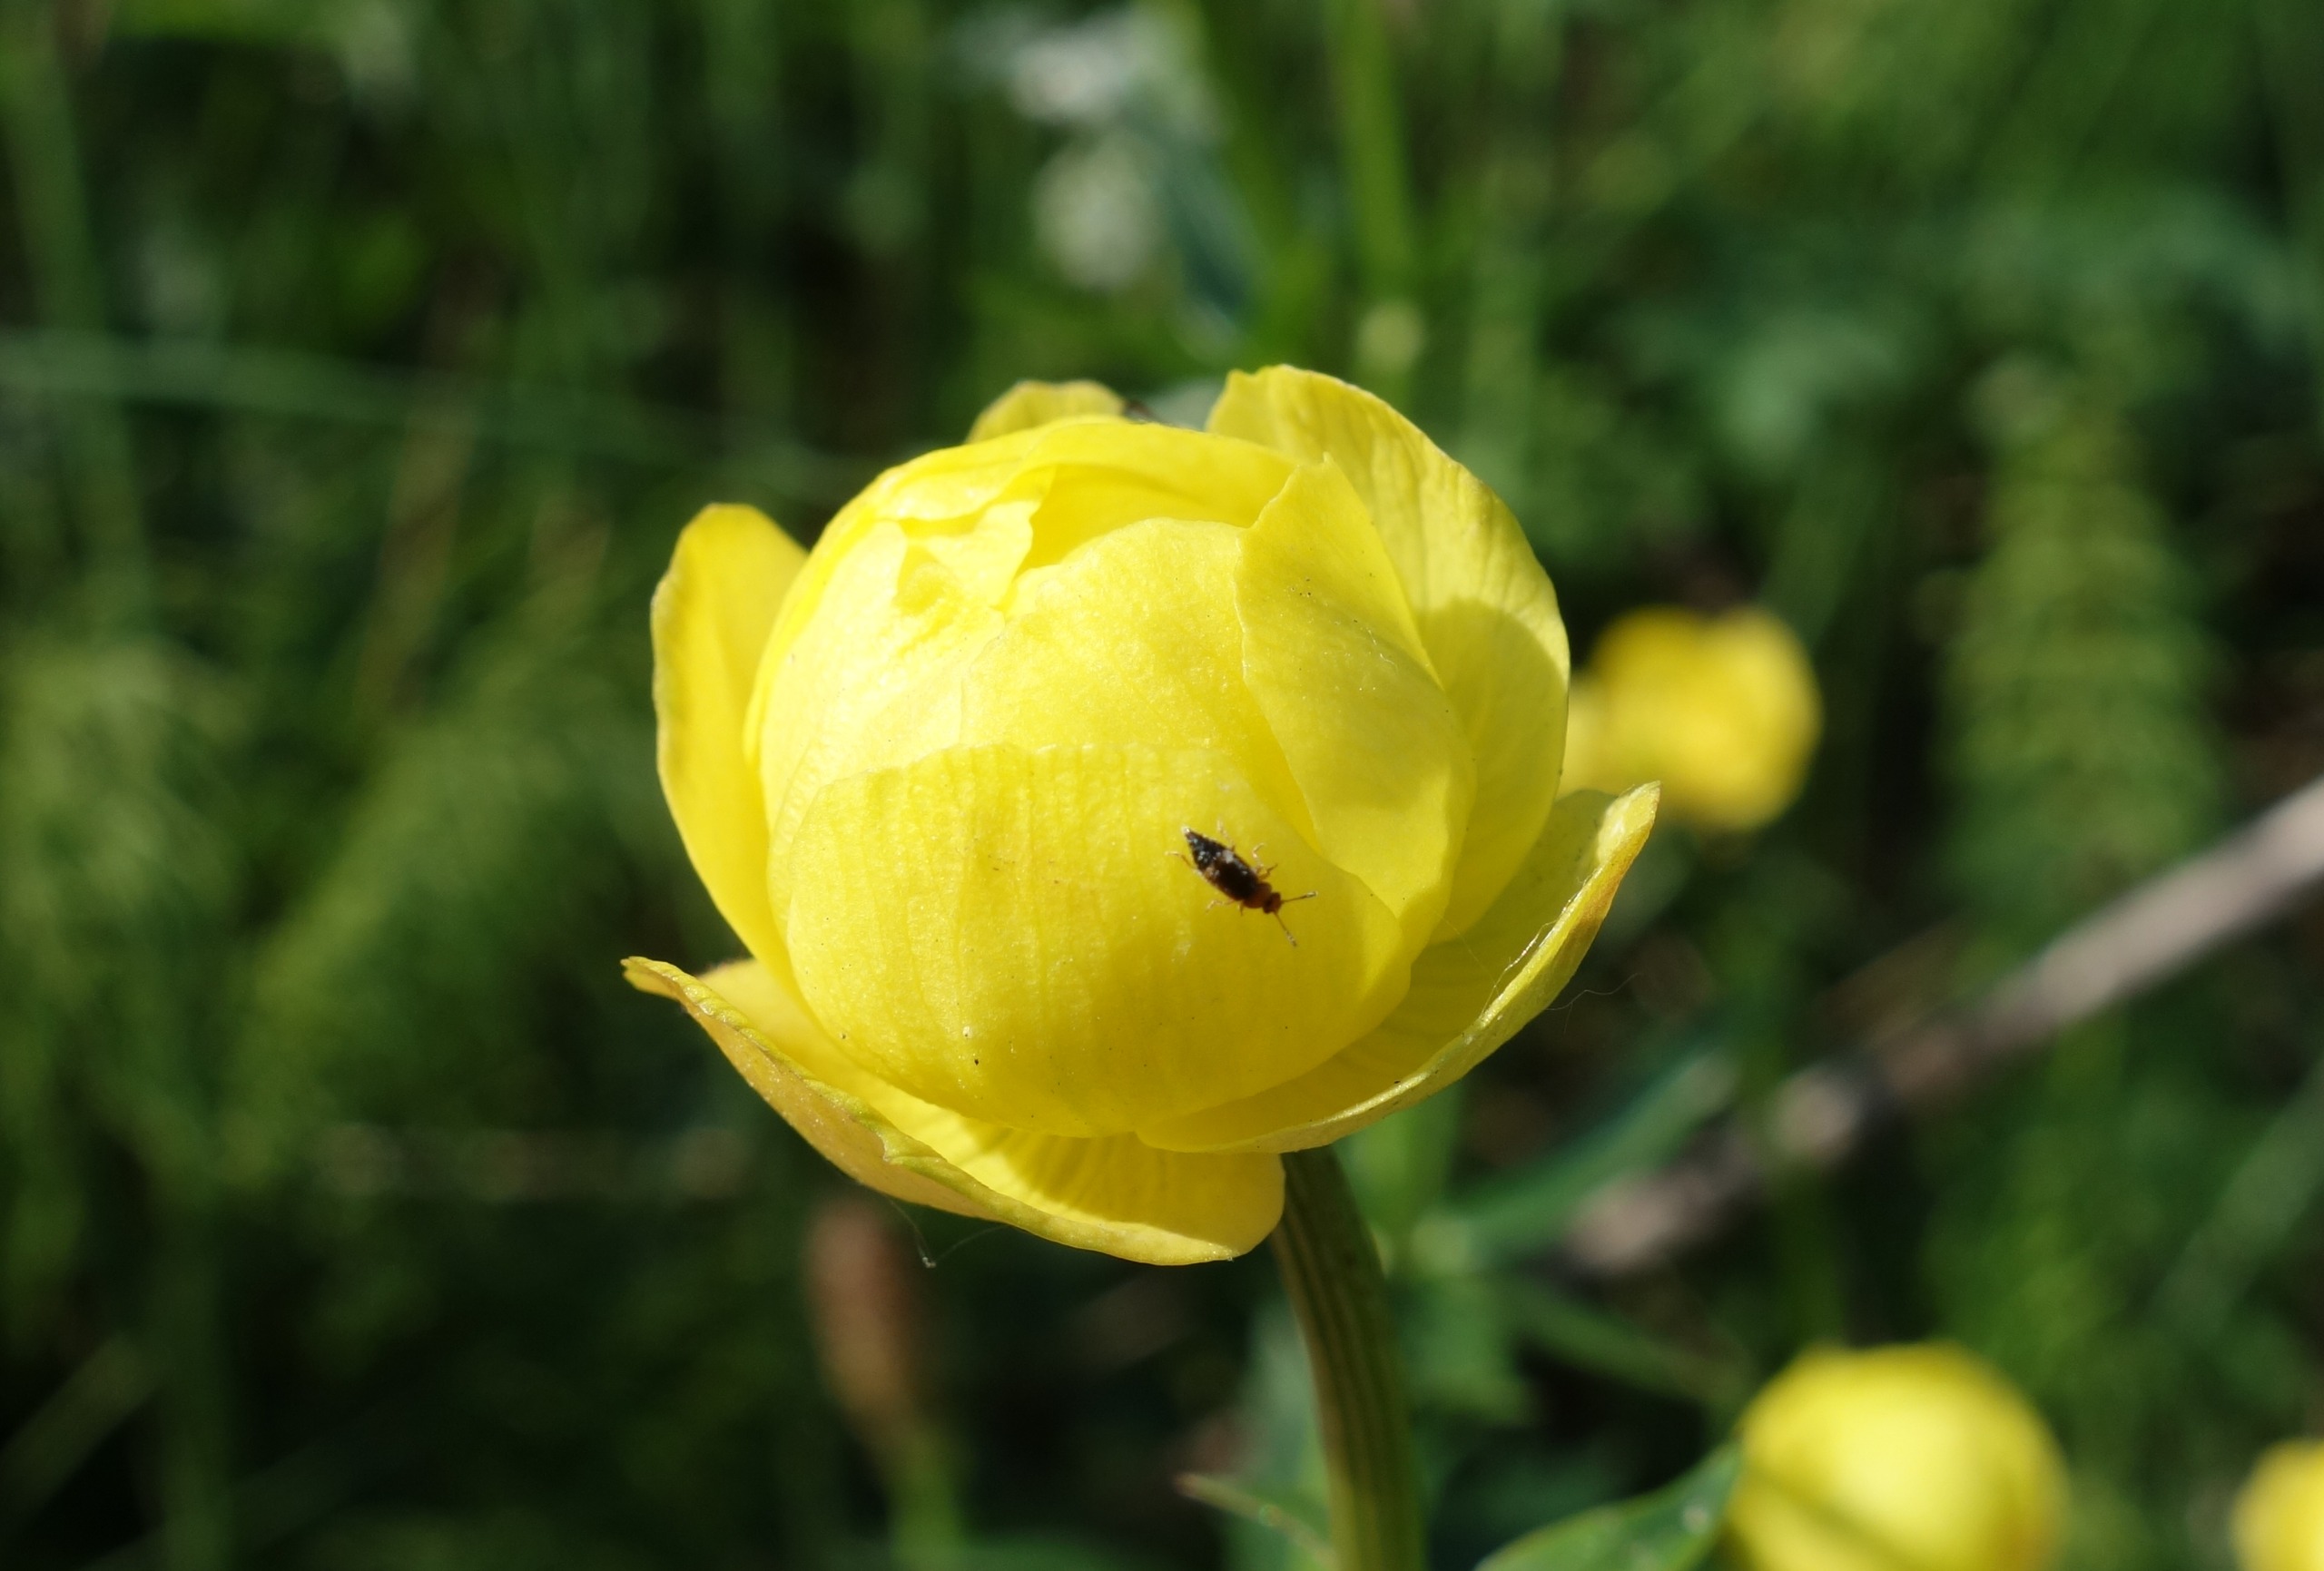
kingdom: Plantae
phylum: Tracheophyta
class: Magnoliopsida
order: Ranunculales
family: Ranunculaceae
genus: Trollius
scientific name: Trollius europaeus
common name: Engblomme
